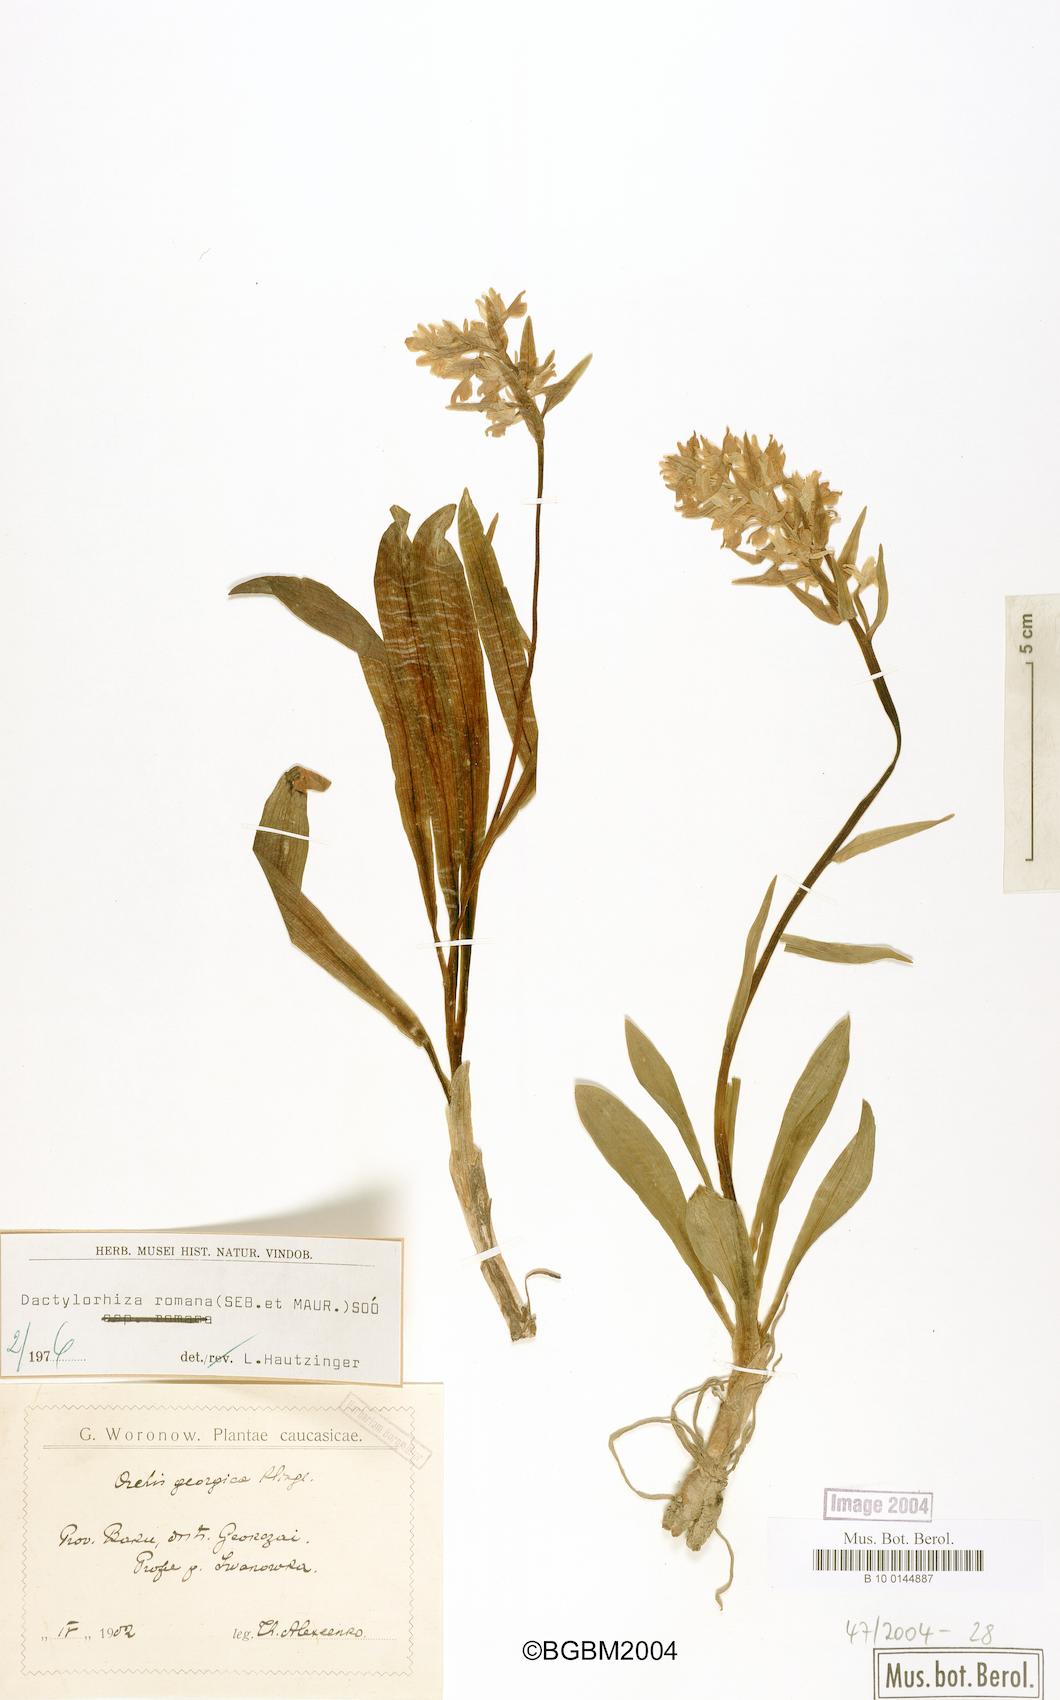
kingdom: Plantae
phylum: Tracheophyta
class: Liliopsida
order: Asparagales
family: Orchidaceae
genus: Dactylorhiza
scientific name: Dactylorhiza romana
